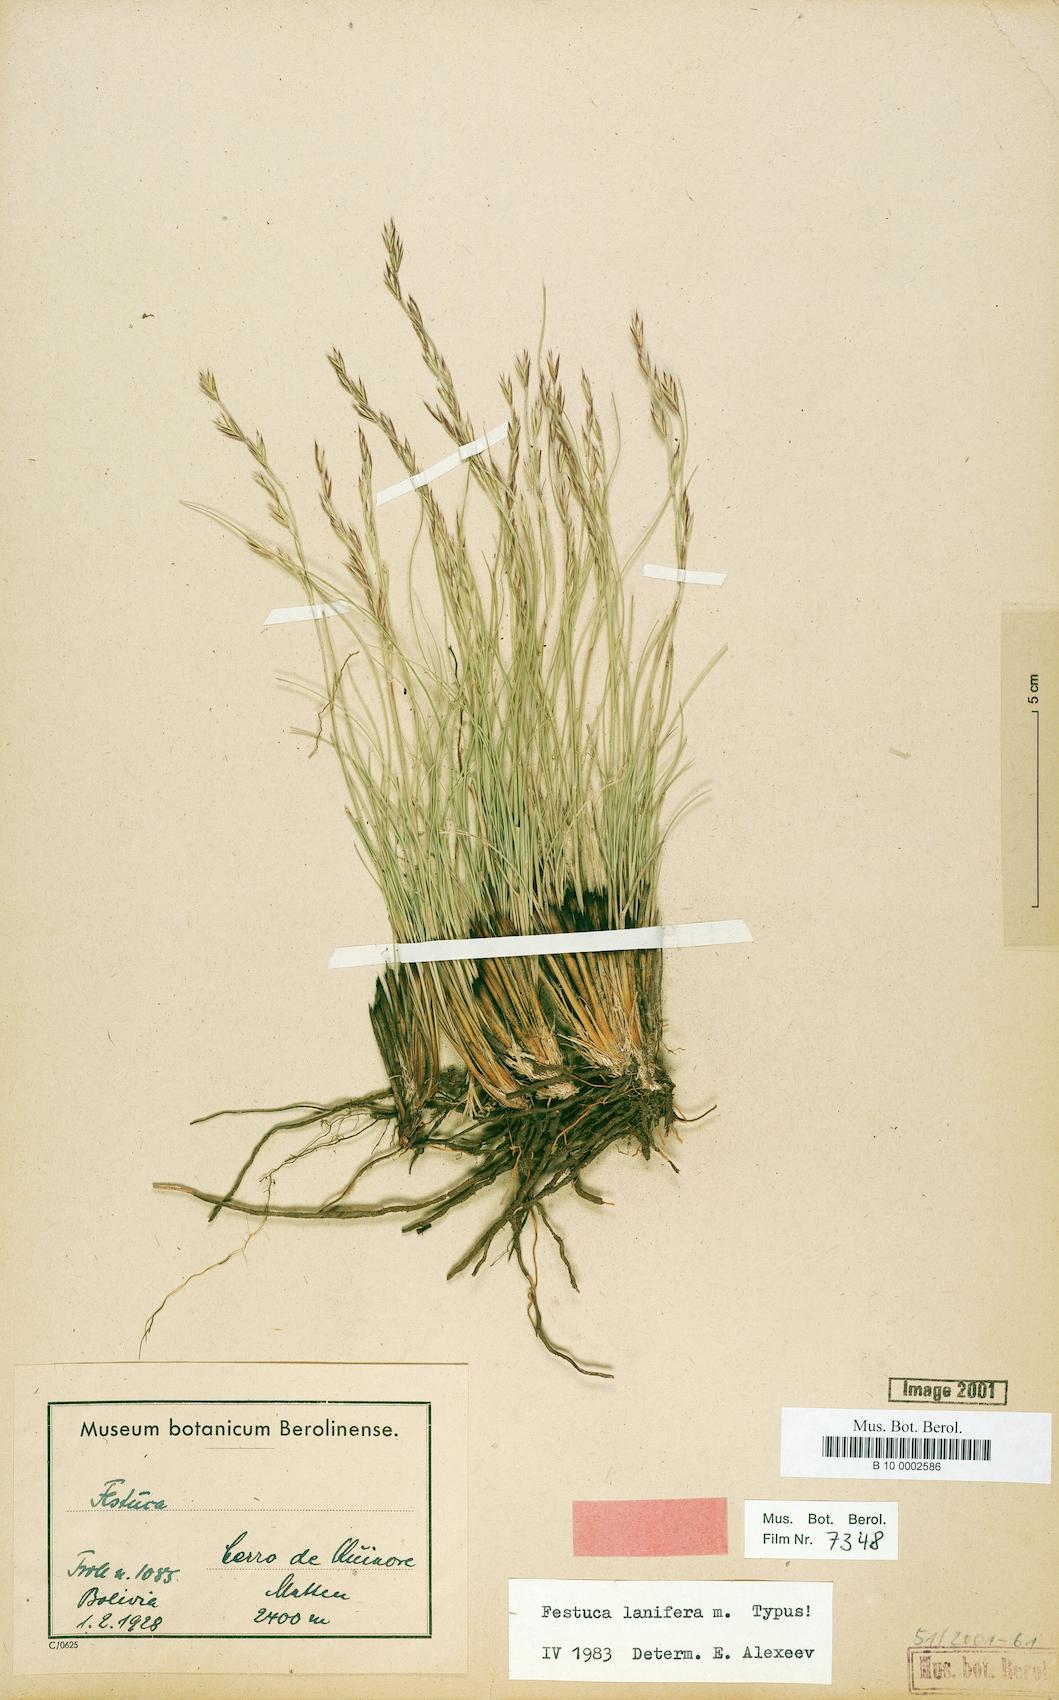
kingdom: Plantae
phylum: Tracheophyta
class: Liliopsida
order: Poales
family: Poaceae
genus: Festuca
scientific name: Festuca lanifera
